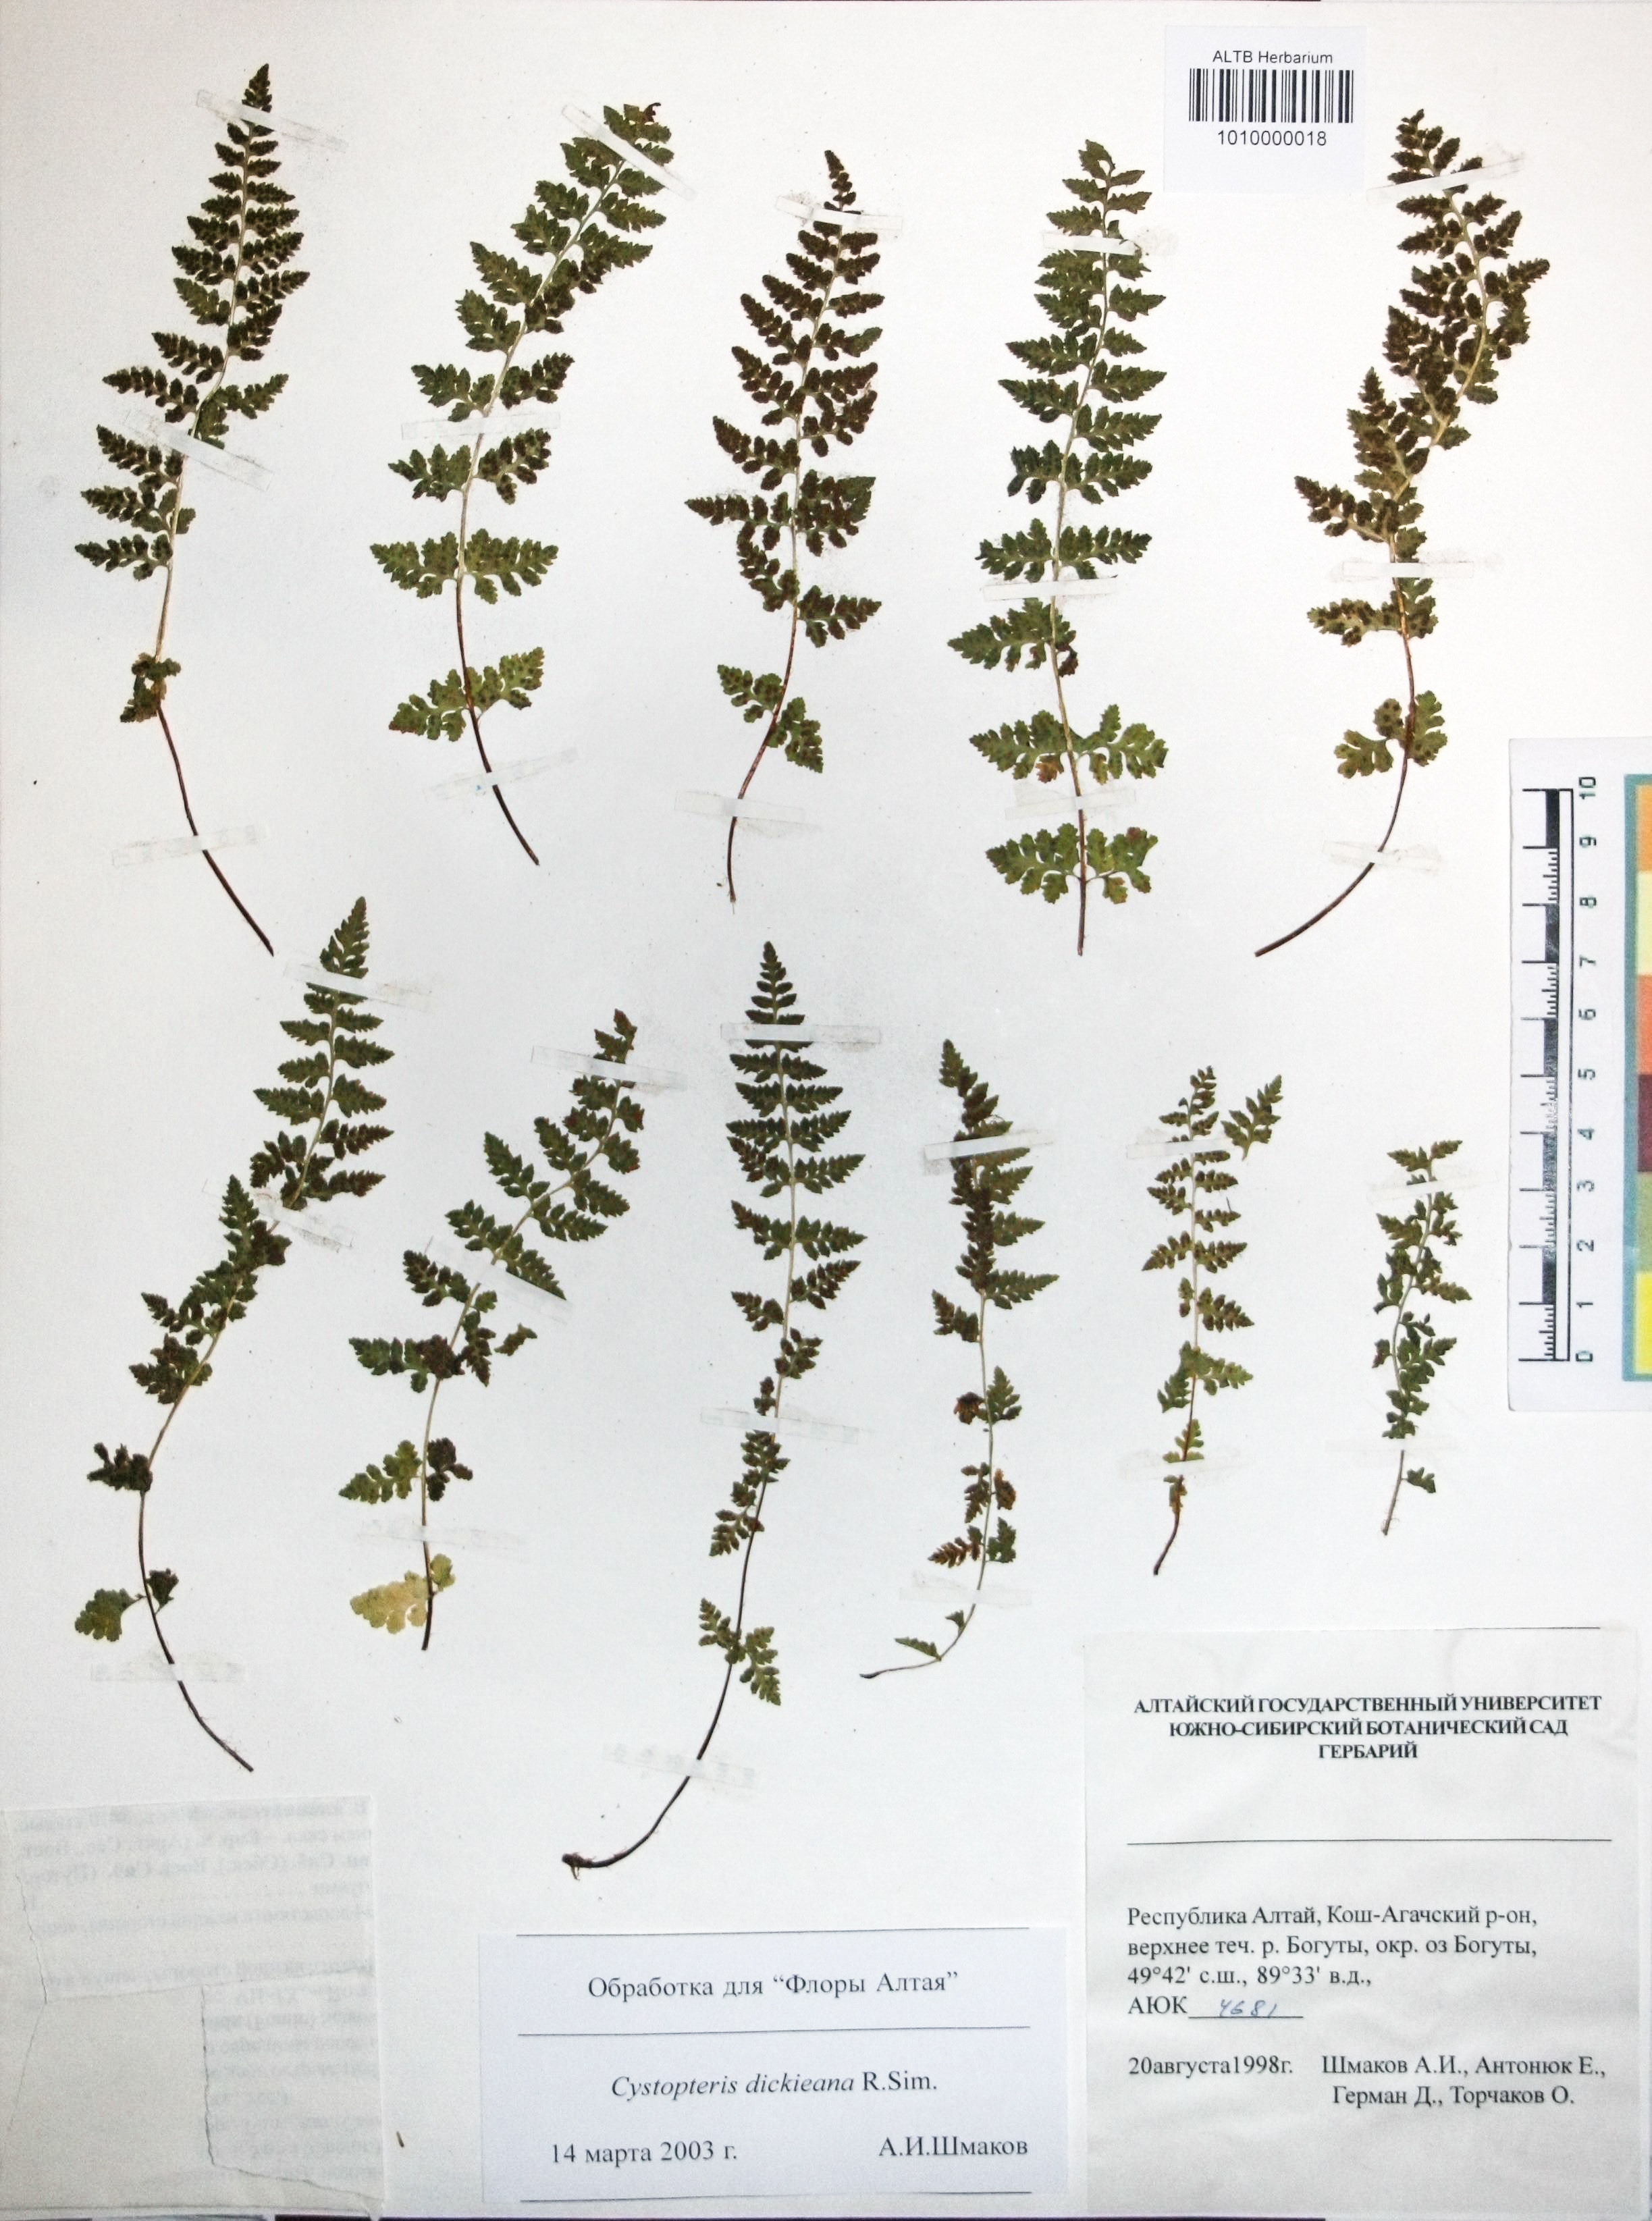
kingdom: Plantae
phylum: Tracheophyta
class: Polypodiopsida
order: Polypodiales
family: Cystopteridaceae
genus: Cystopteris
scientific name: Cystopteris dickieana
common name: Dickie's bladder-fern
